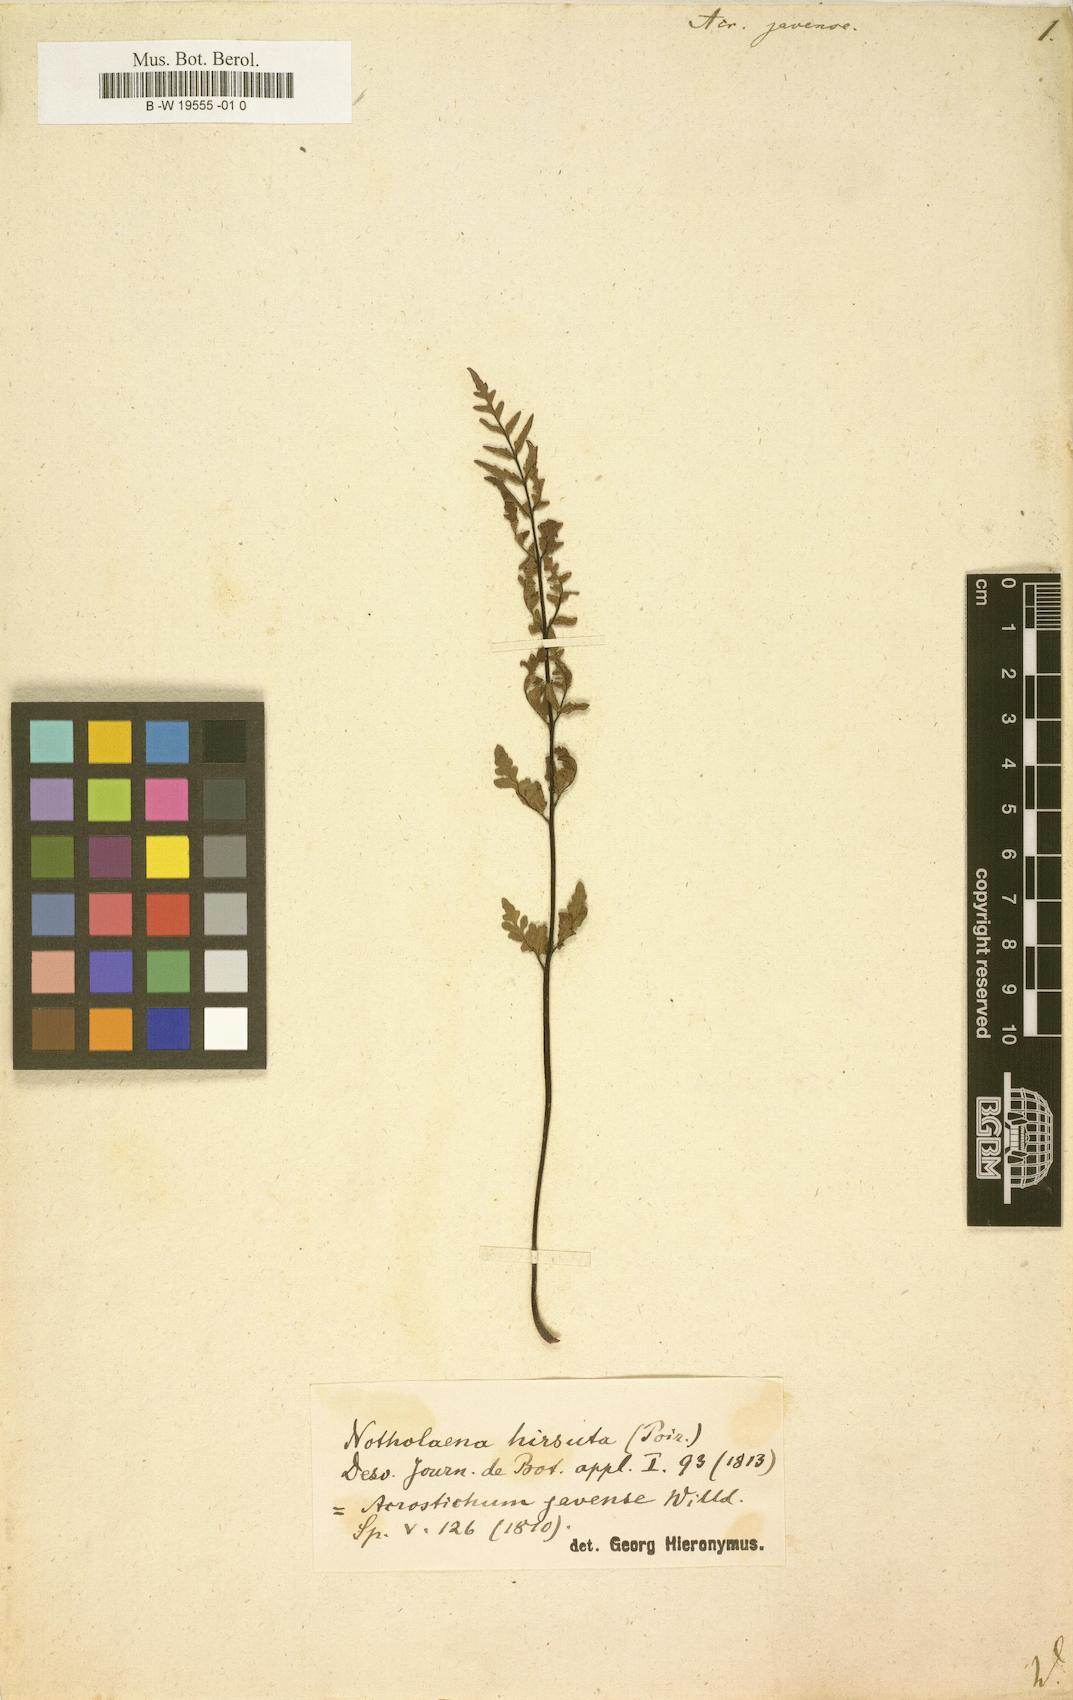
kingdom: Plantae
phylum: Tracheophyta
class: Polypodiopsida
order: Polypodiales
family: Pteridaceae
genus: Cheilanthes
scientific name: Cheilanthes nudiuscula
